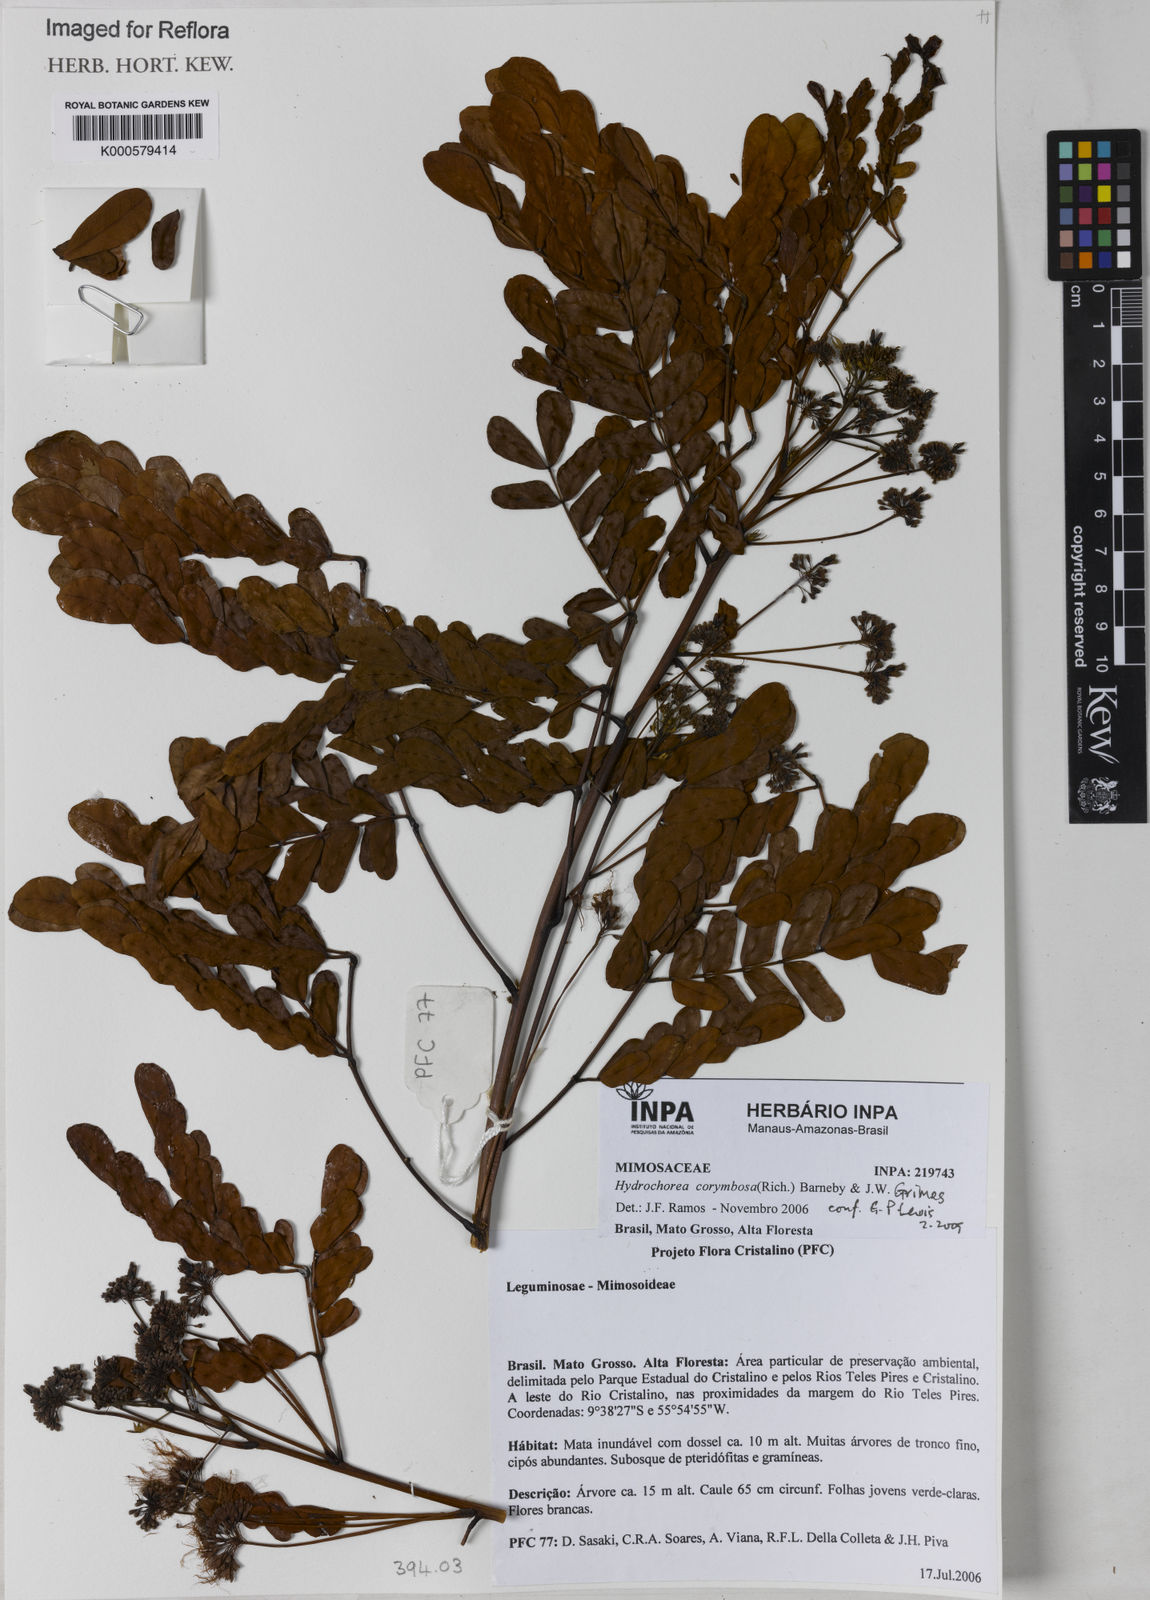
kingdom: Plantae
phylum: Tracheophyta
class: Magnoliopsida
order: Fabales
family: Fabaceae
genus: Hydrochorea
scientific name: Hydrochorea corymbosa
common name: Swamp manariballi
